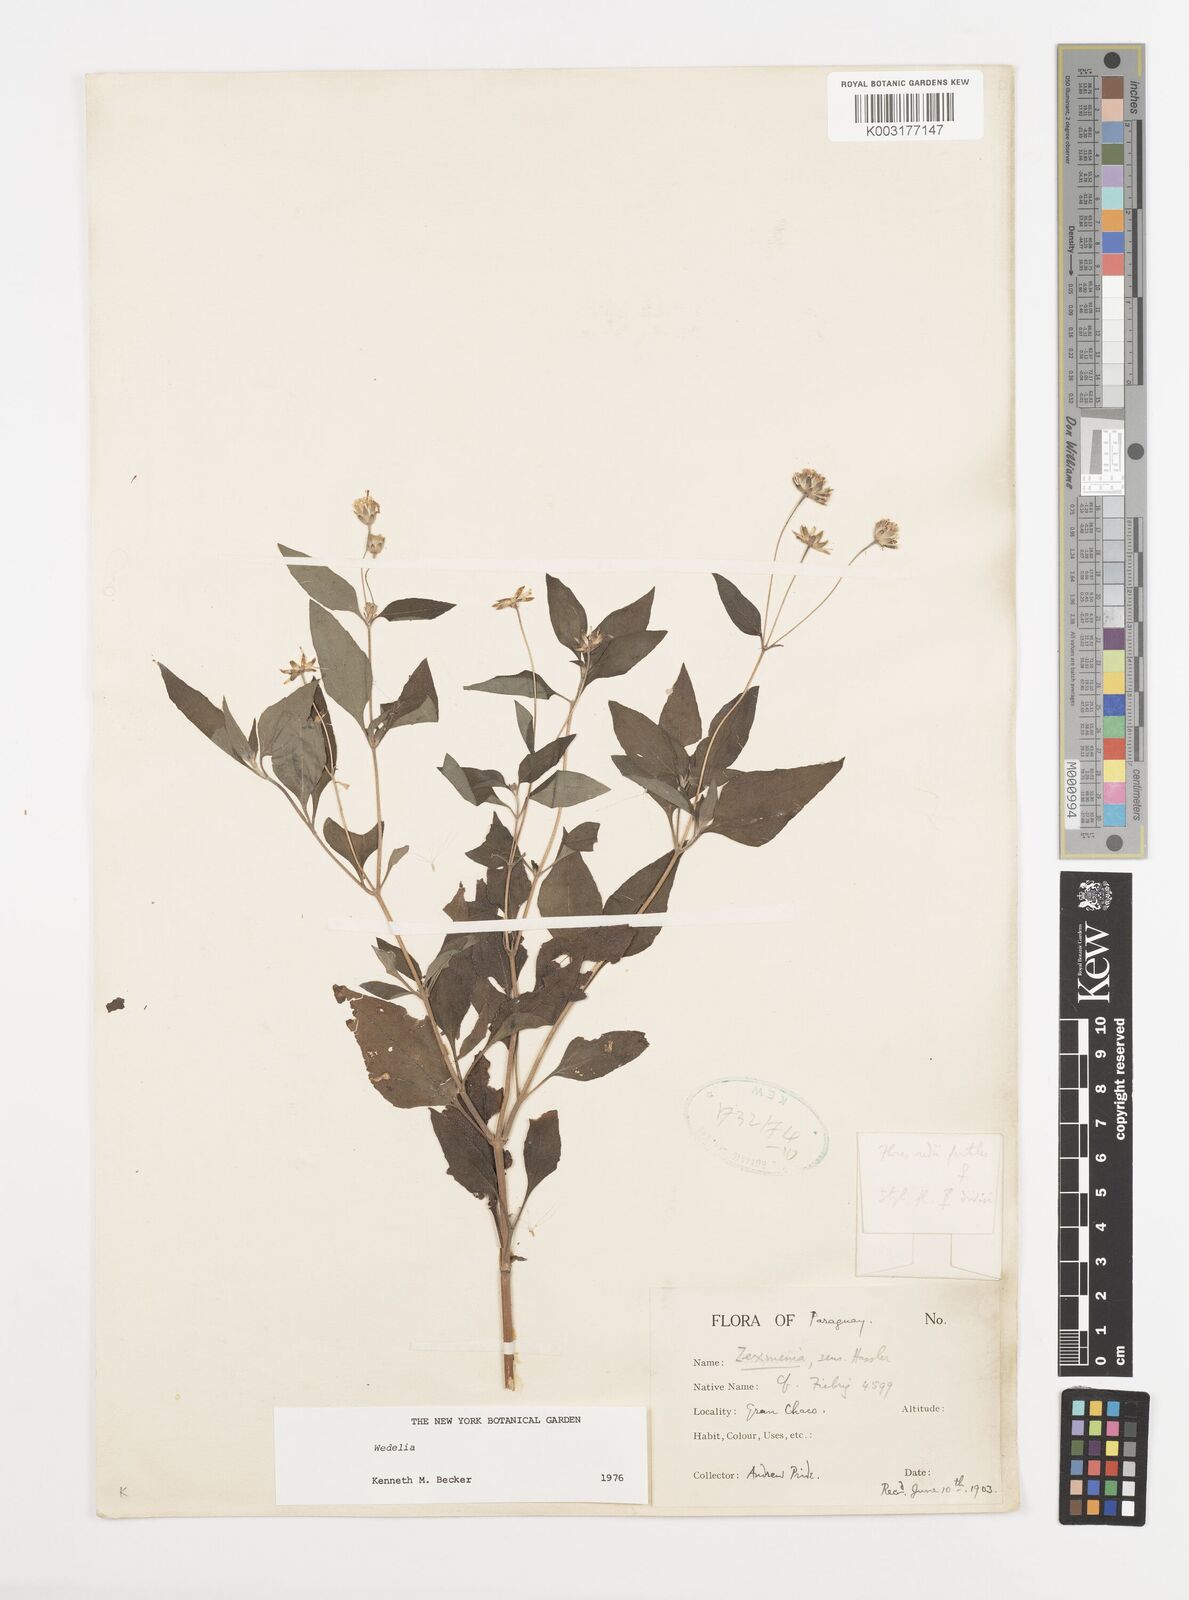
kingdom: Plantae
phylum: Tracheophyta
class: Magnoliopsida
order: Asterales
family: Asteraceae
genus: Wedelia
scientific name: Wedelia
